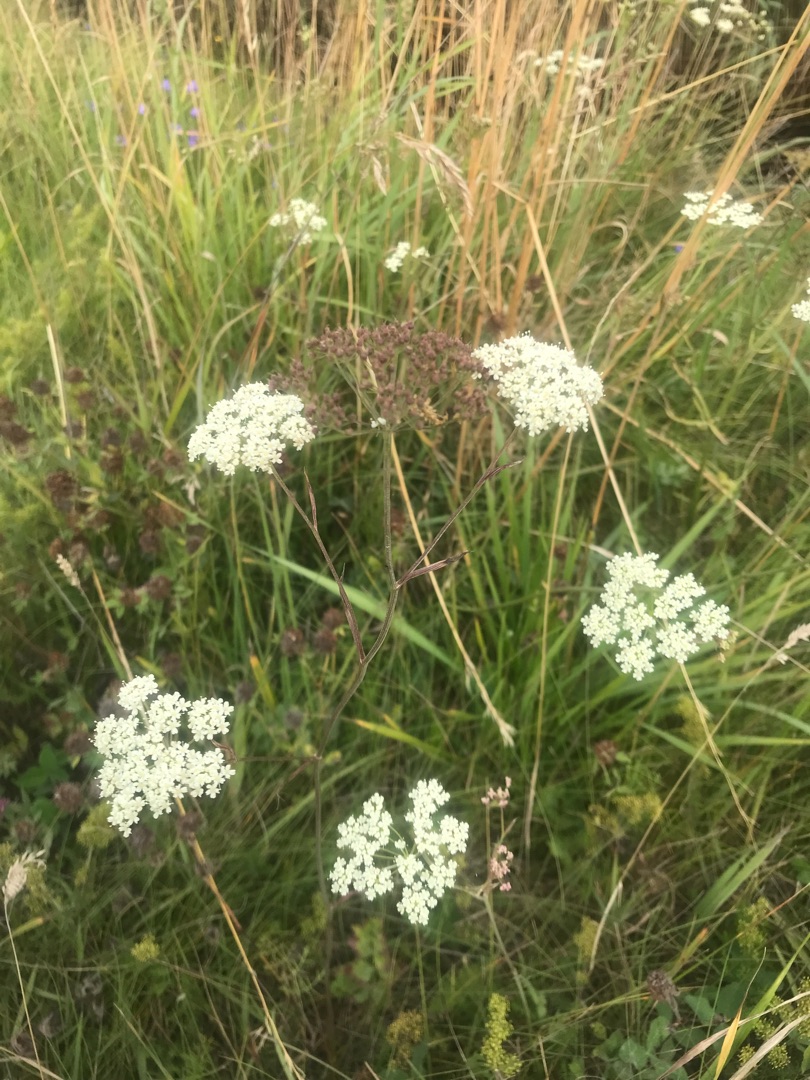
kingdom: Plantae
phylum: Tracheophyta
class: Magnoliopsida
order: Apiales
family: Apiaceae
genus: Pimpinella
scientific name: Pimpinella saxifraga
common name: Almindelig pimpinelle
